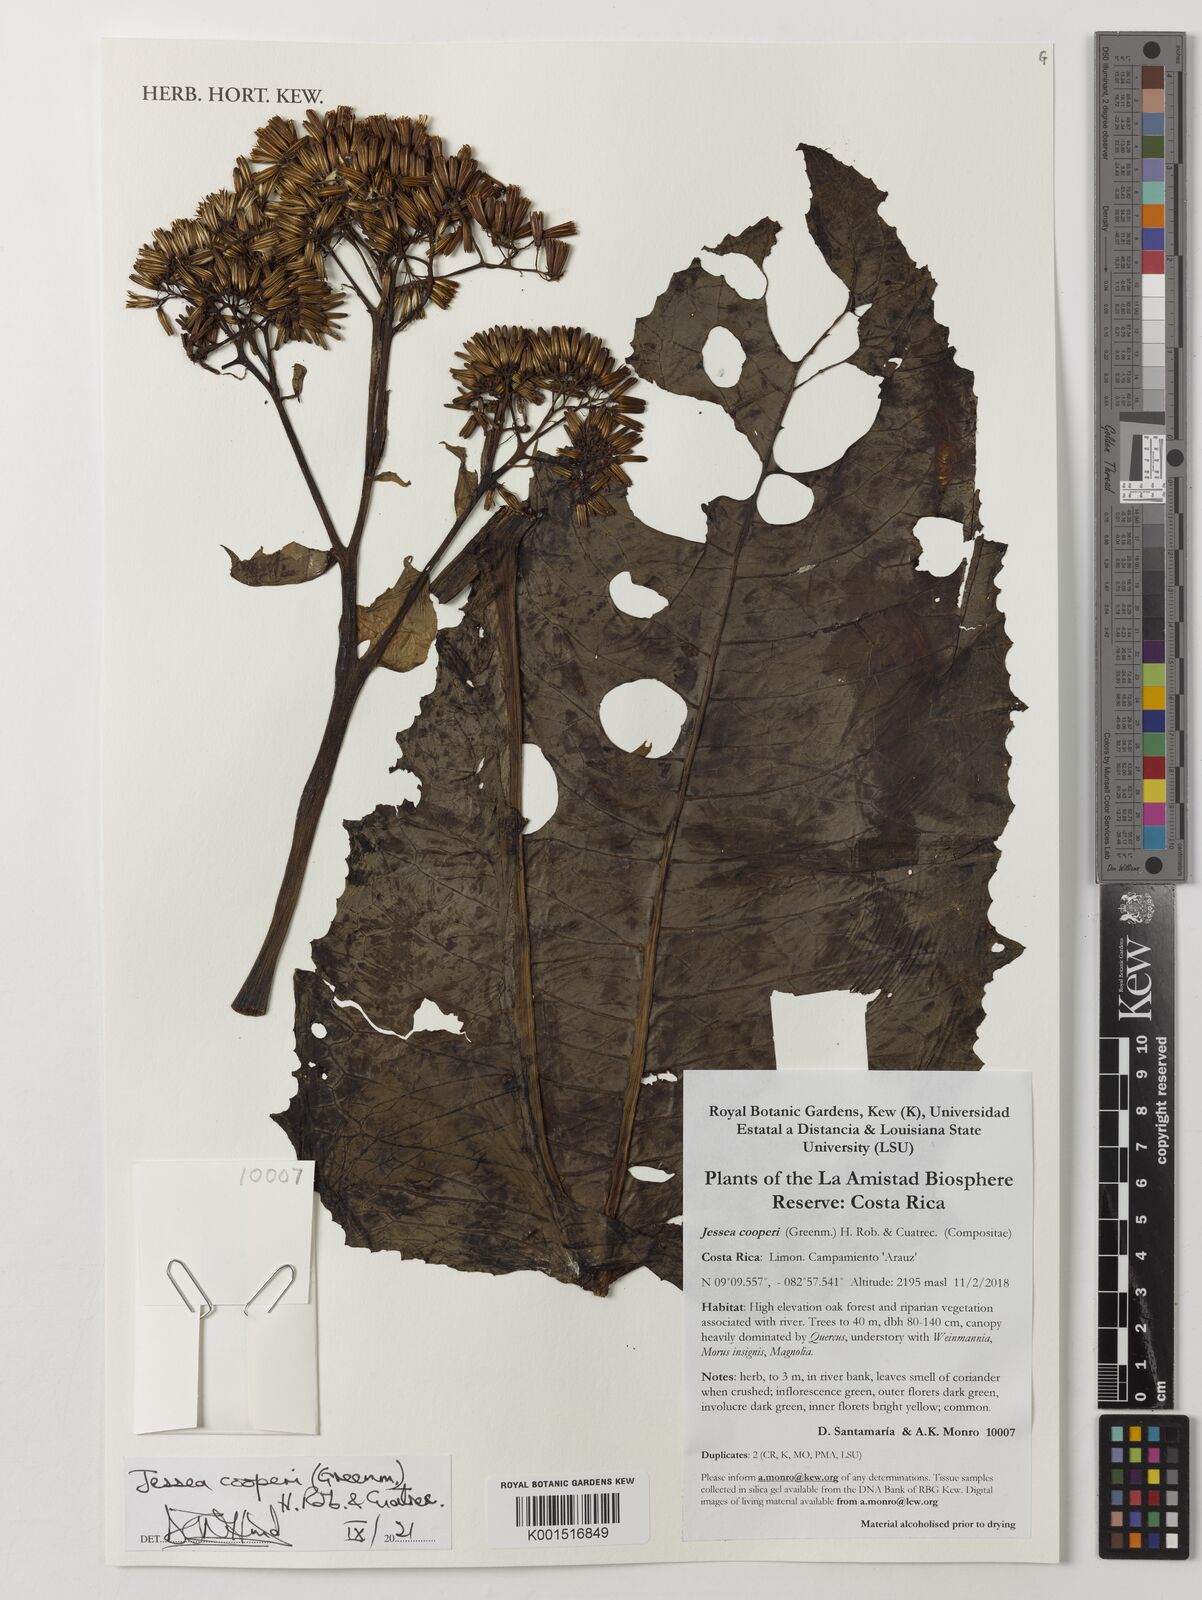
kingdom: Plantae
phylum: Tracheophyta
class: Magnoliopsida
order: Asterales
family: Asteraceae
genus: Jessea
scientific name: Jessea cooperi
